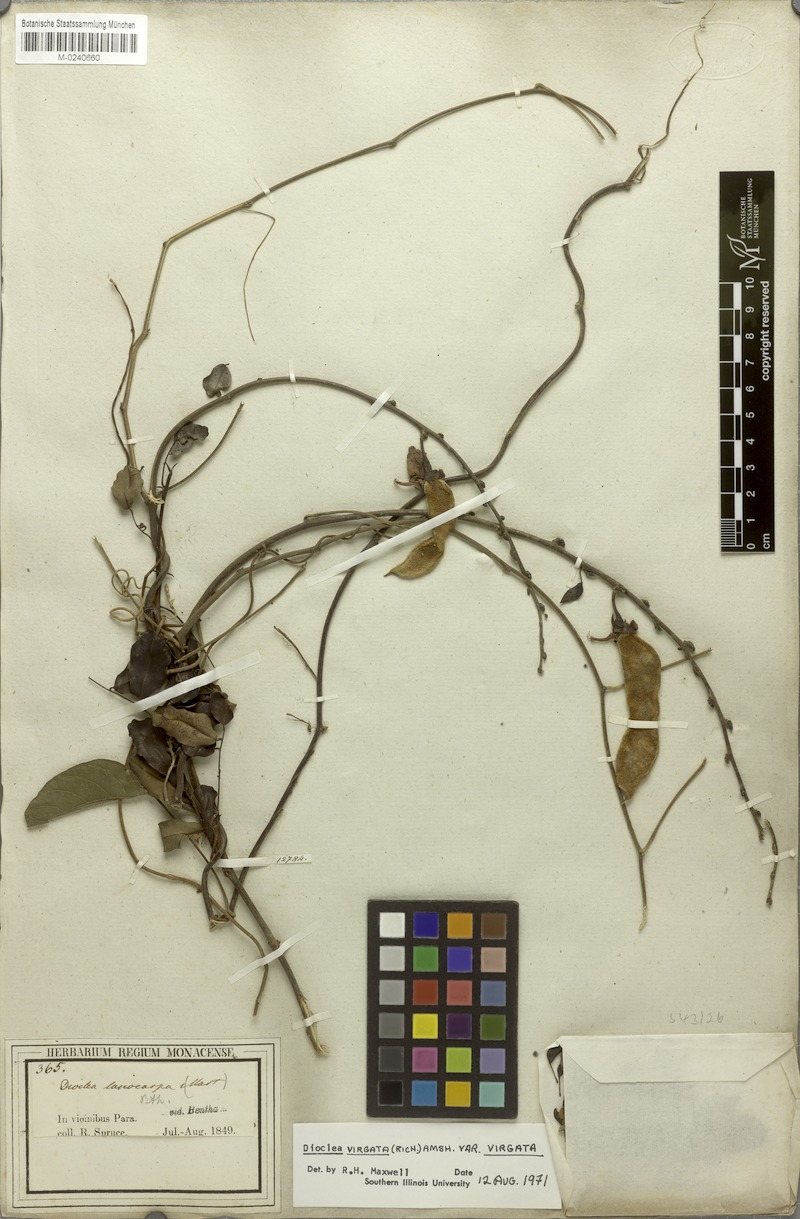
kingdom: Plantae
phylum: Tracheophyta
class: Magnoliopsida
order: Fabales
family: Fabaceae
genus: Dioclea
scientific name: Dioclea virgata
